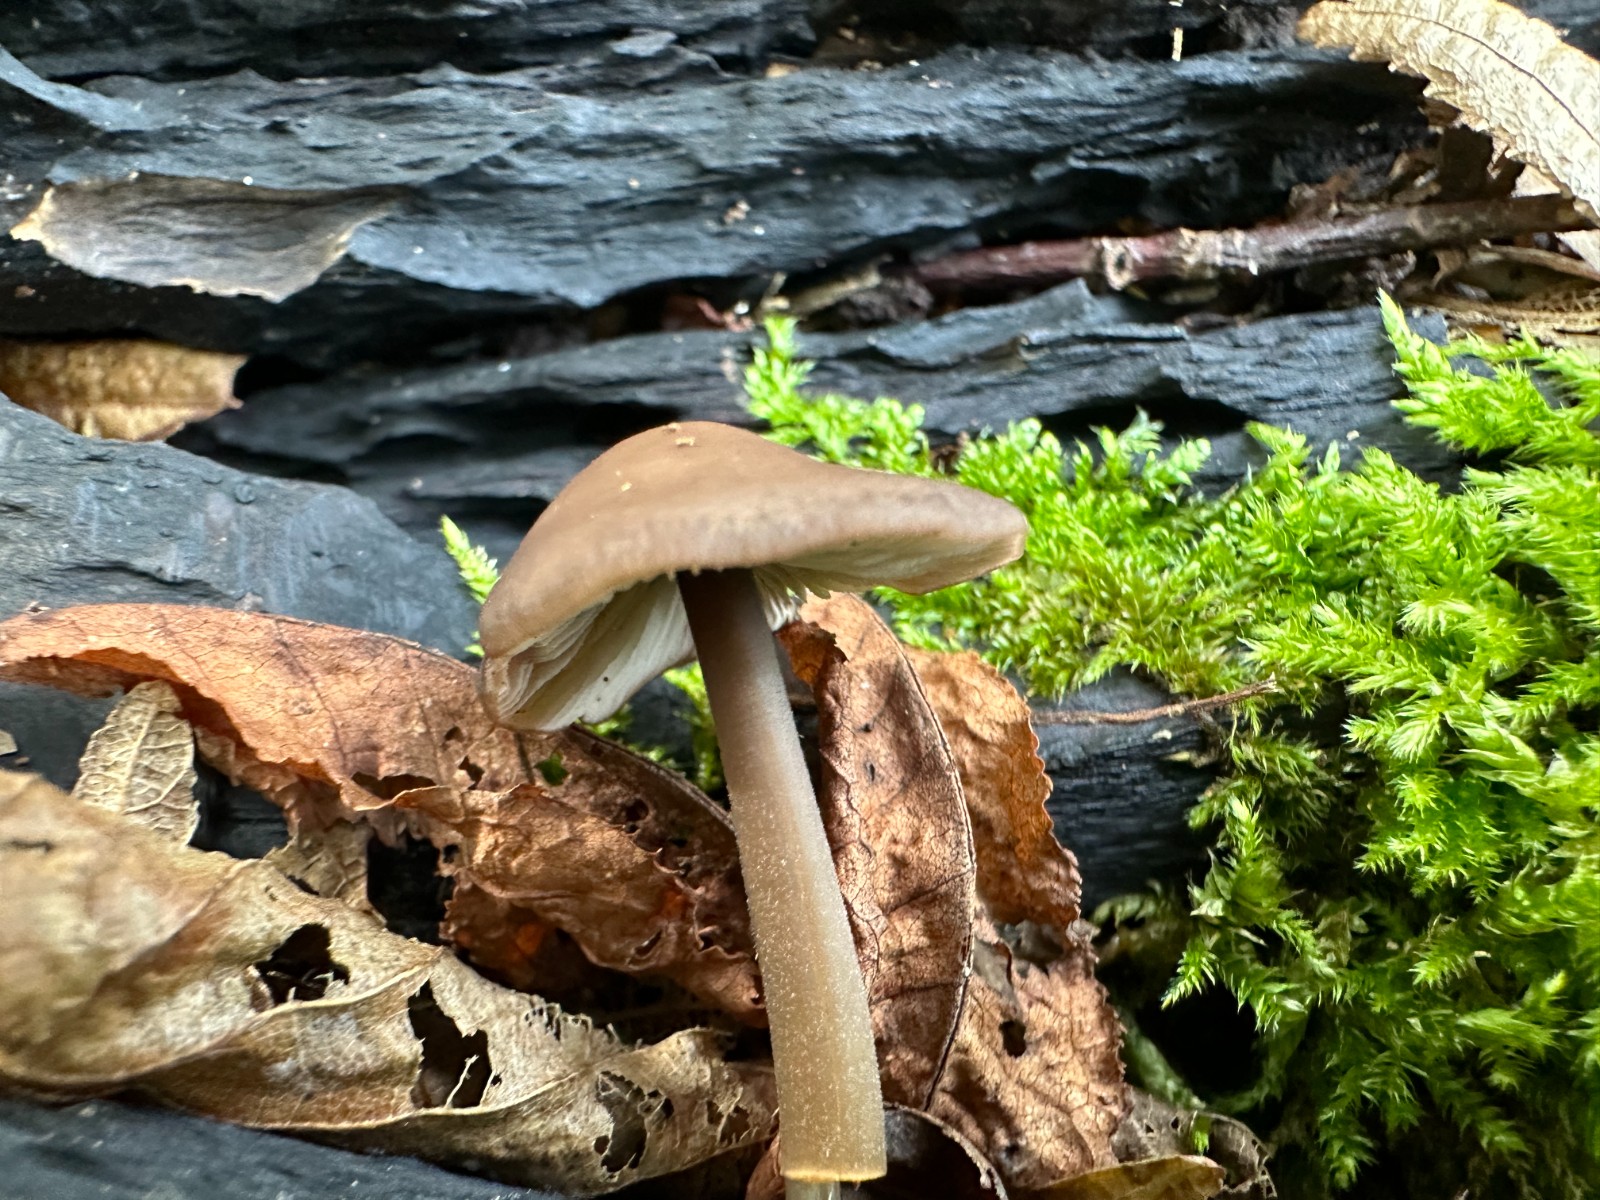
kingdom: Fungi
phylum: Basidiomycota
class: Agaricomycetes
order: Agaricales
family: Omphalotaceae
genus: Mycetinis
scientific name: Mycetinis alliaceus
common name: stor løghat
